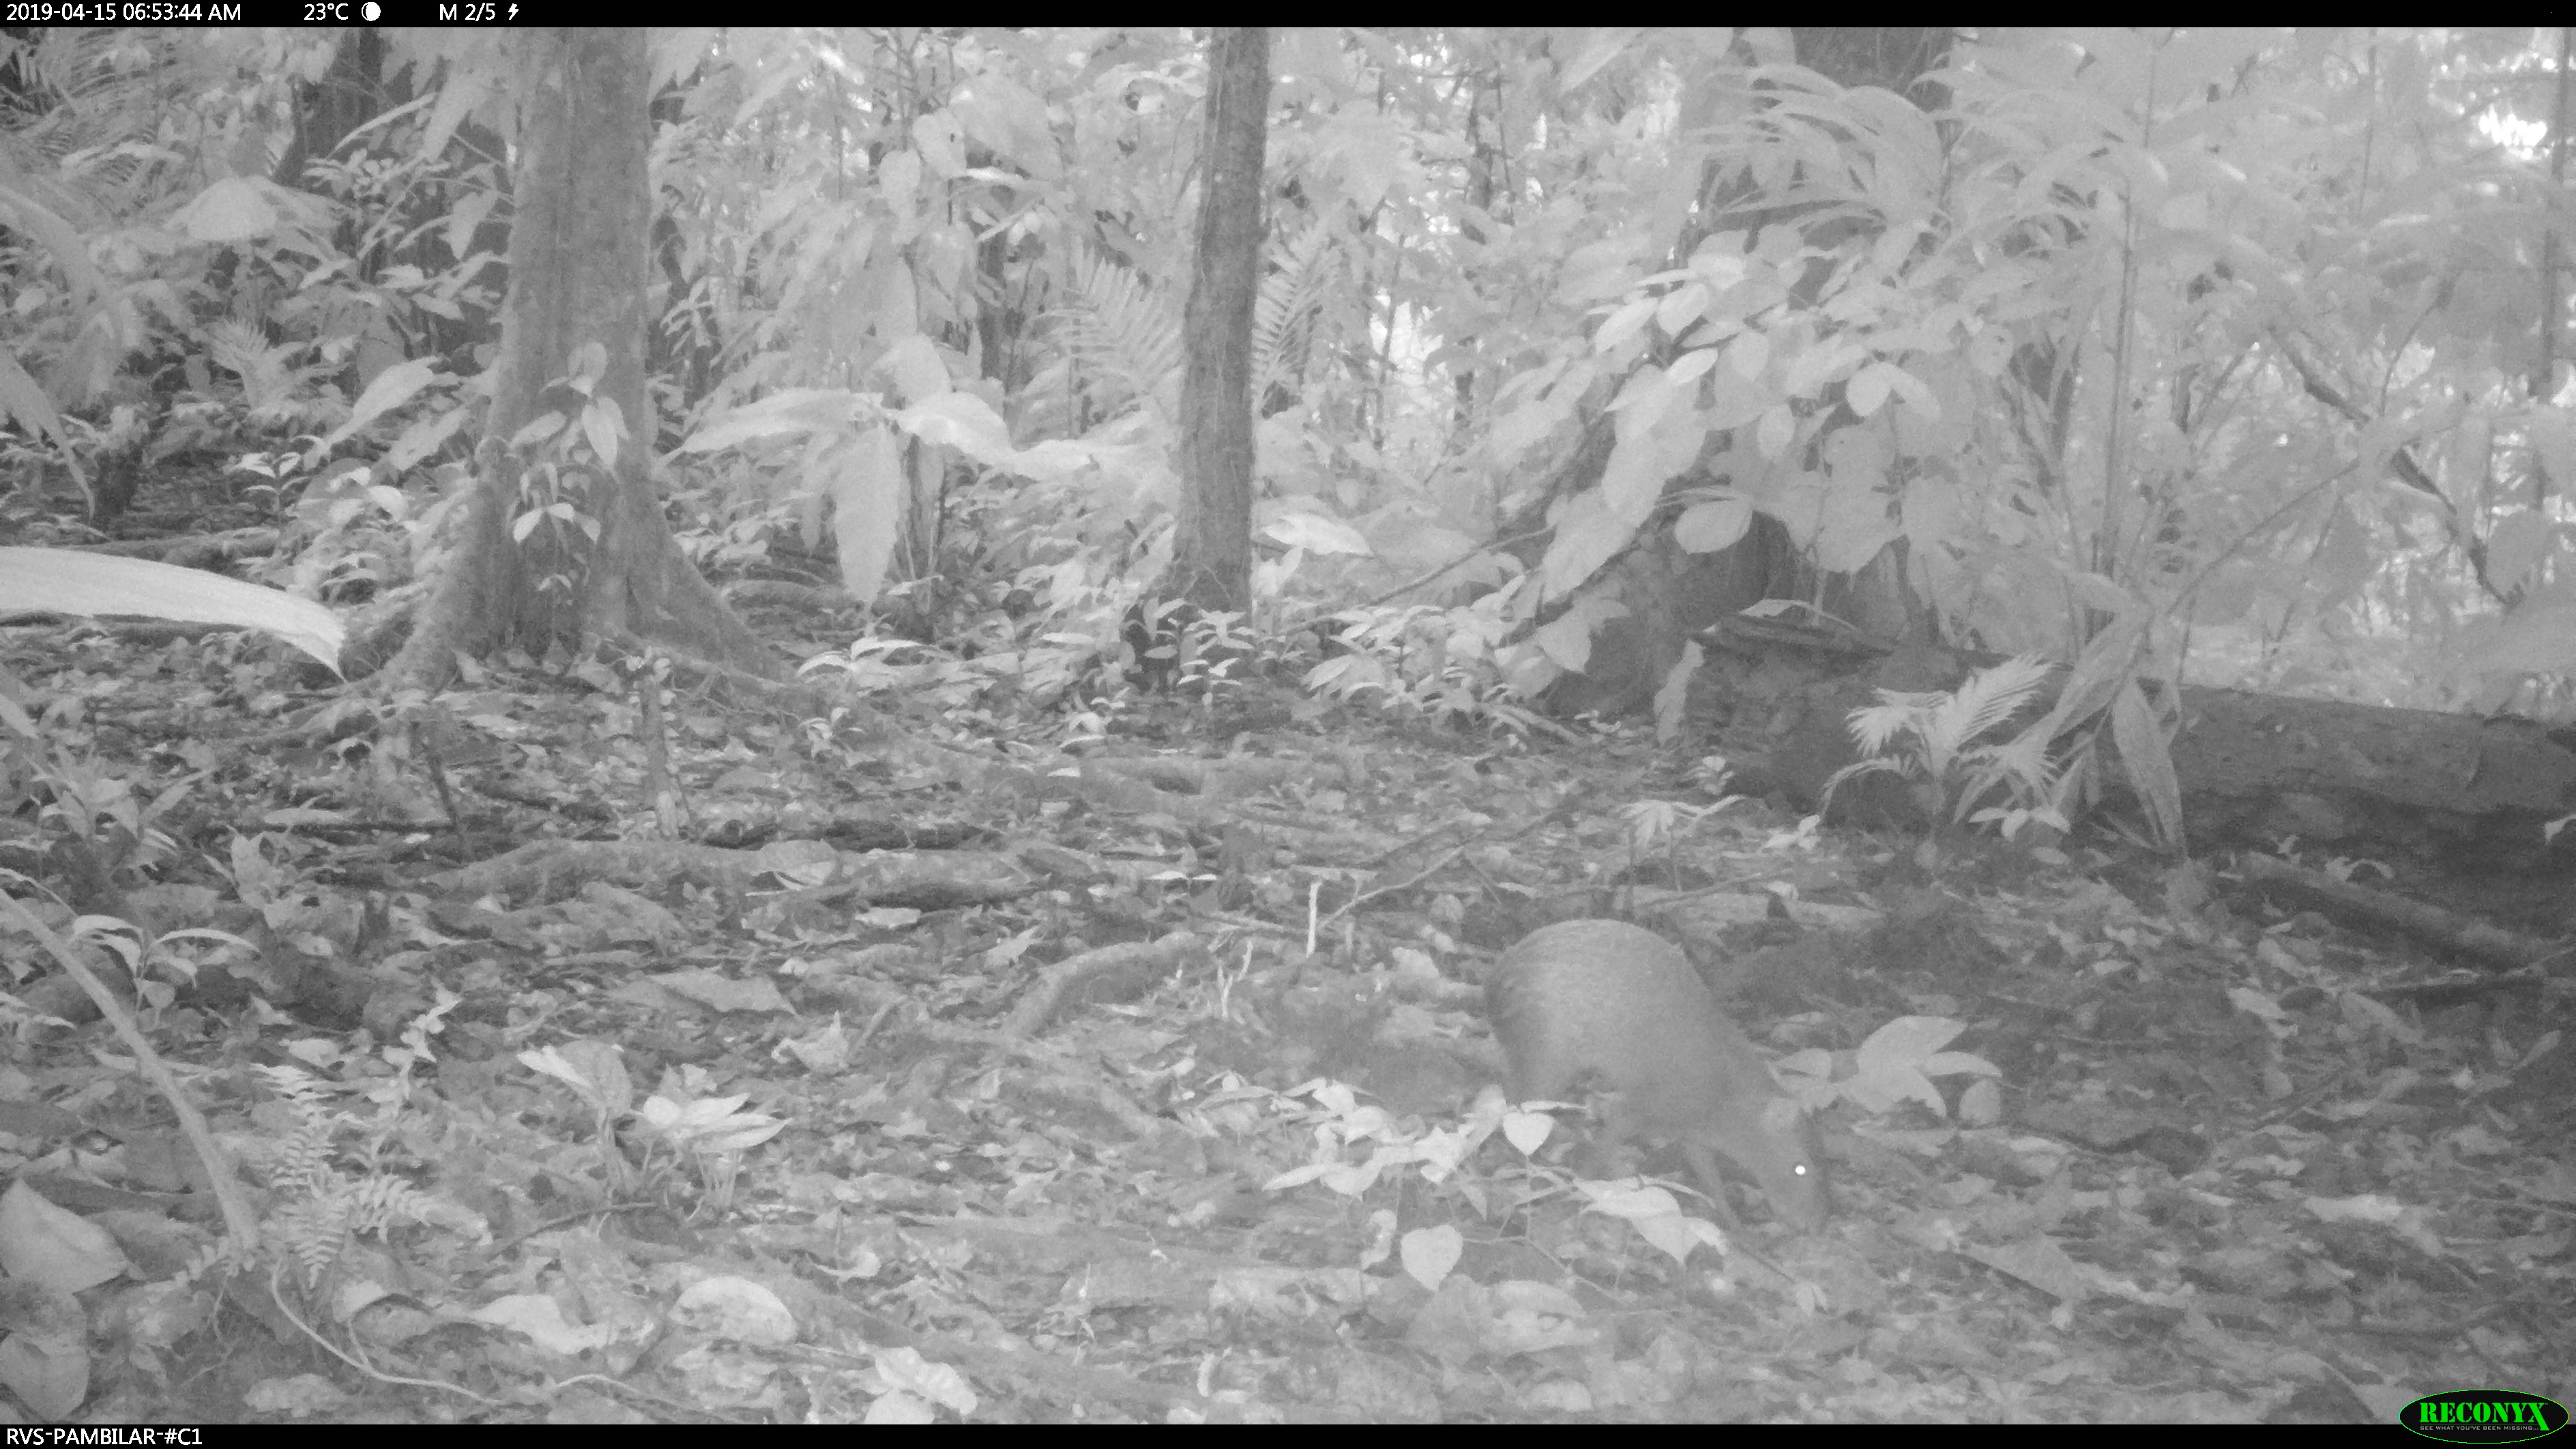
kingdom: Animalia
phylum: Chordata
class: Mammalia
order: Rodentia
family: Dasyproctidae
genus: Dasyprocta
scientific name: Dasyprocta punctata
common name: Central american agouti
